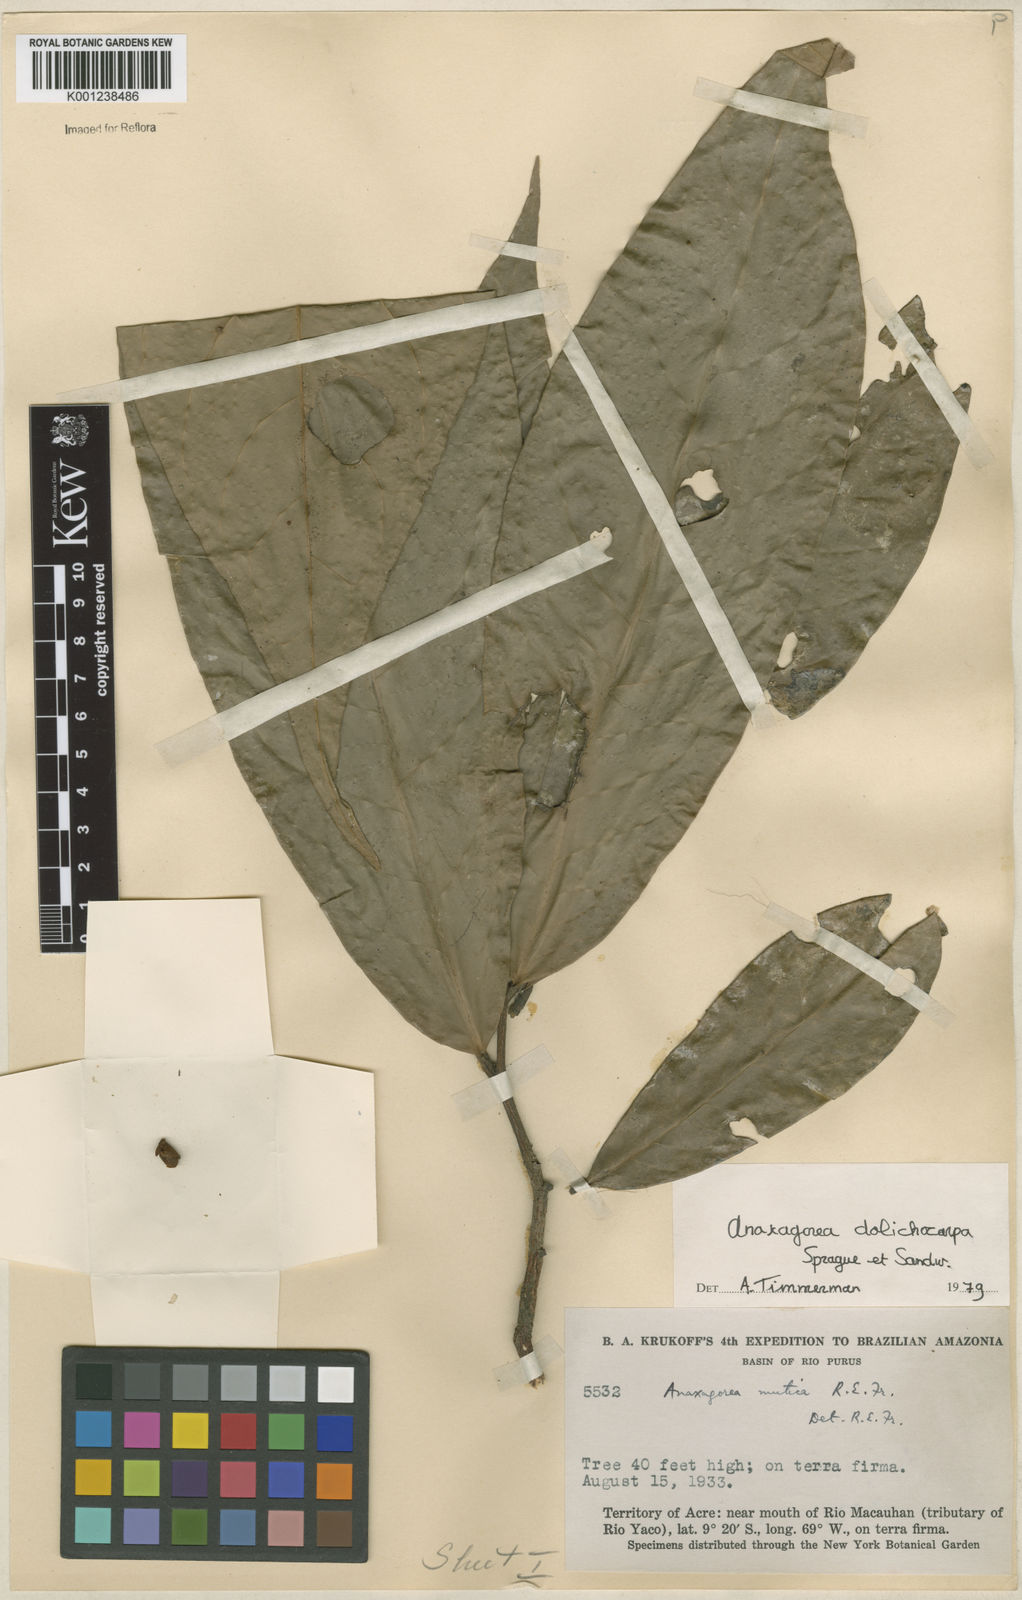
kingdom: Plantae
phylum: Tracheophyta
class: Magnoliopsida
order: Magnoliales
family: Annonaceae
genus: Anaxagorea
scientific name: Anaxagorea dolichocarpa
